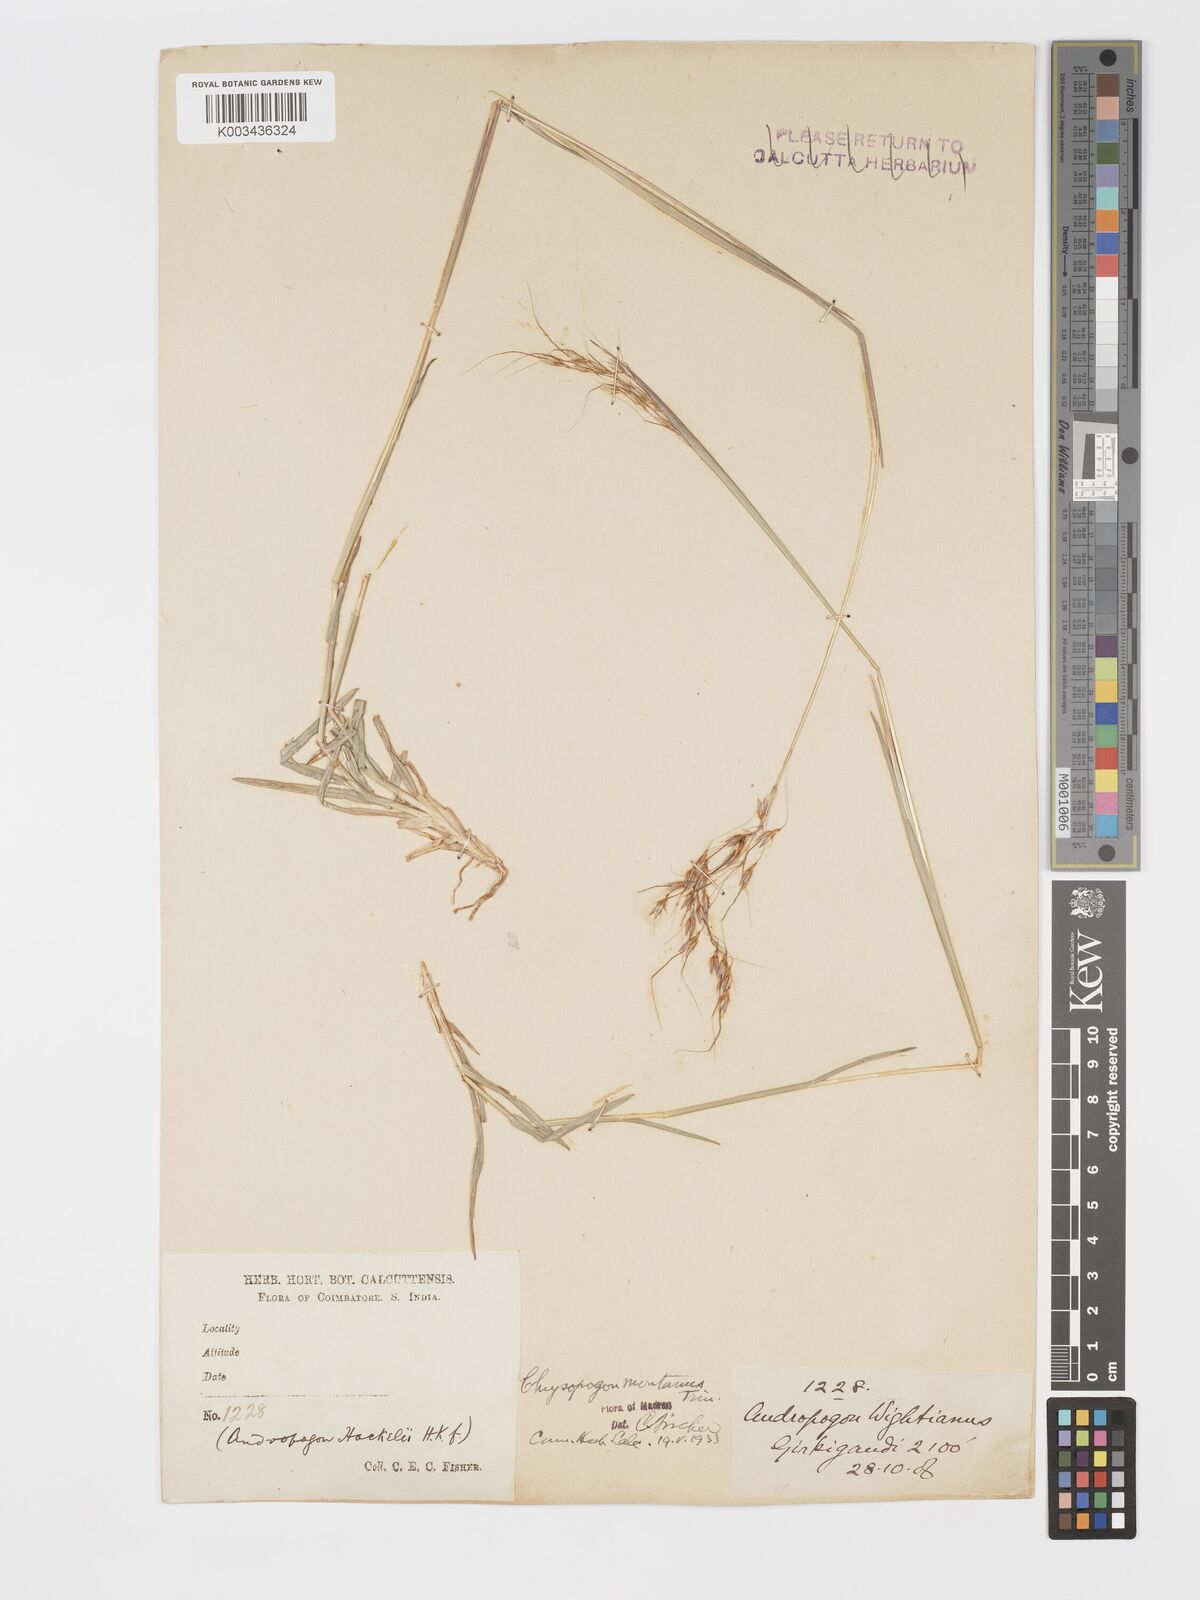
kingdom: Plantae
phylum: Tracheophyta
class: Liliopsida
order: Poales
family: Poaceae
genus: Chrysopogon
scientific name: Chrysopogon fulvus
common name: Red false beardgrass
